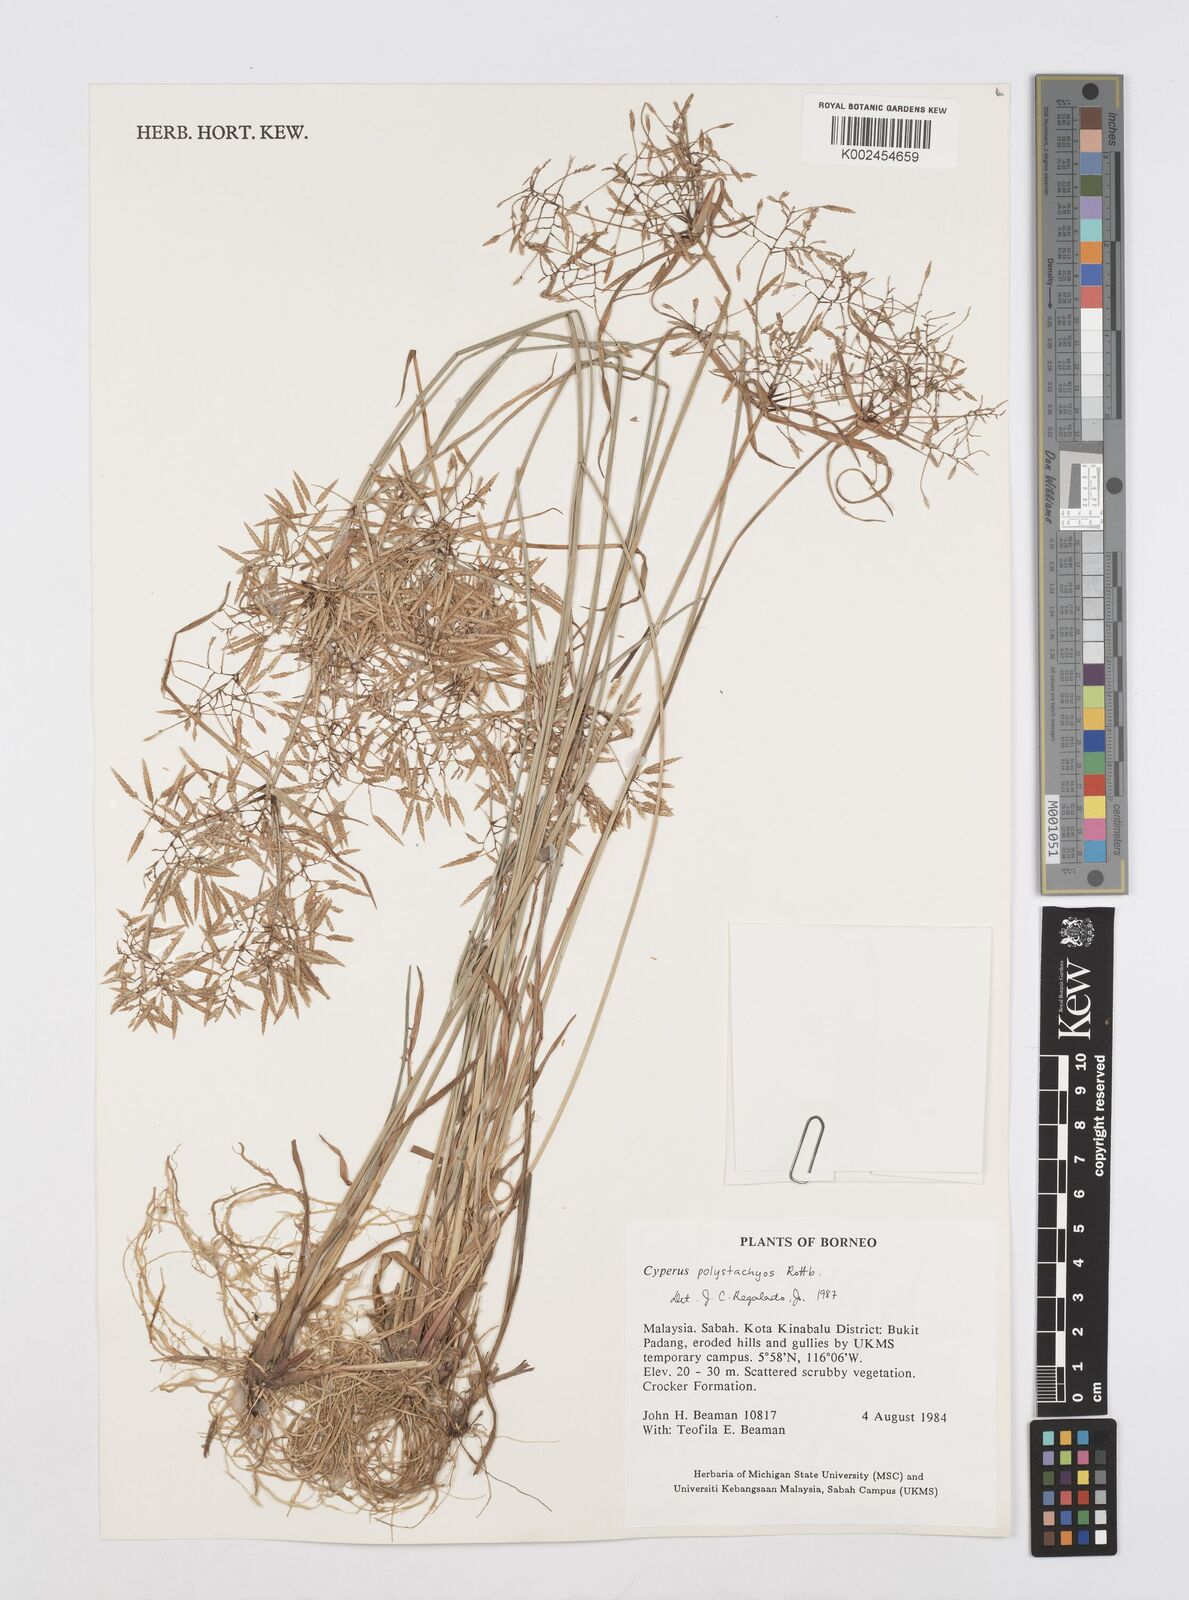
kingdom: Plantae
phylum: Tracheophyta
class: Liliopsida
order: Poales
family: Cyperaceae
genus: Cyperus
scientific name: Cyperus polystachyos
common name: Bunchy flat sedge
